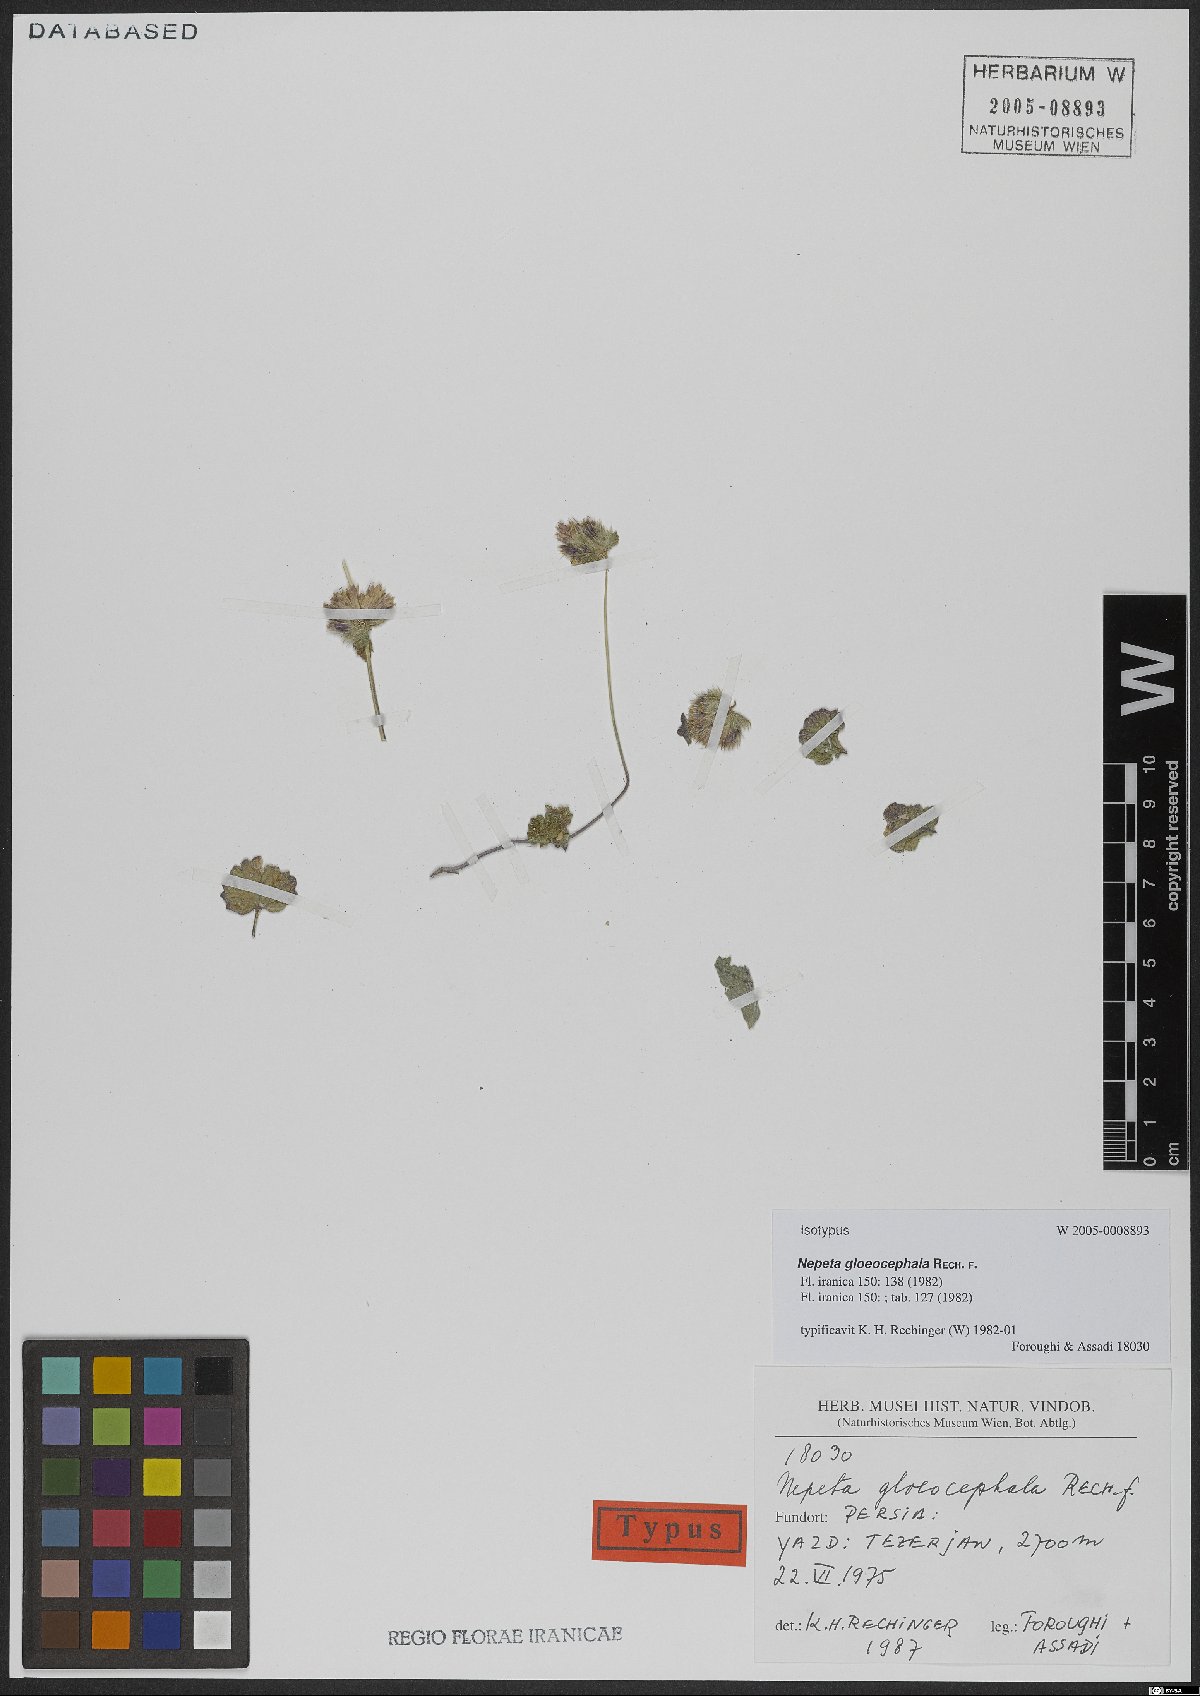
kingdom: Plantae
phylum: Tracheophyta
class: Magnoliopsida
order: Lamiales
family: Lamiaceae
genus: Nepeta
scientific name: Nepeta gloeocephala
